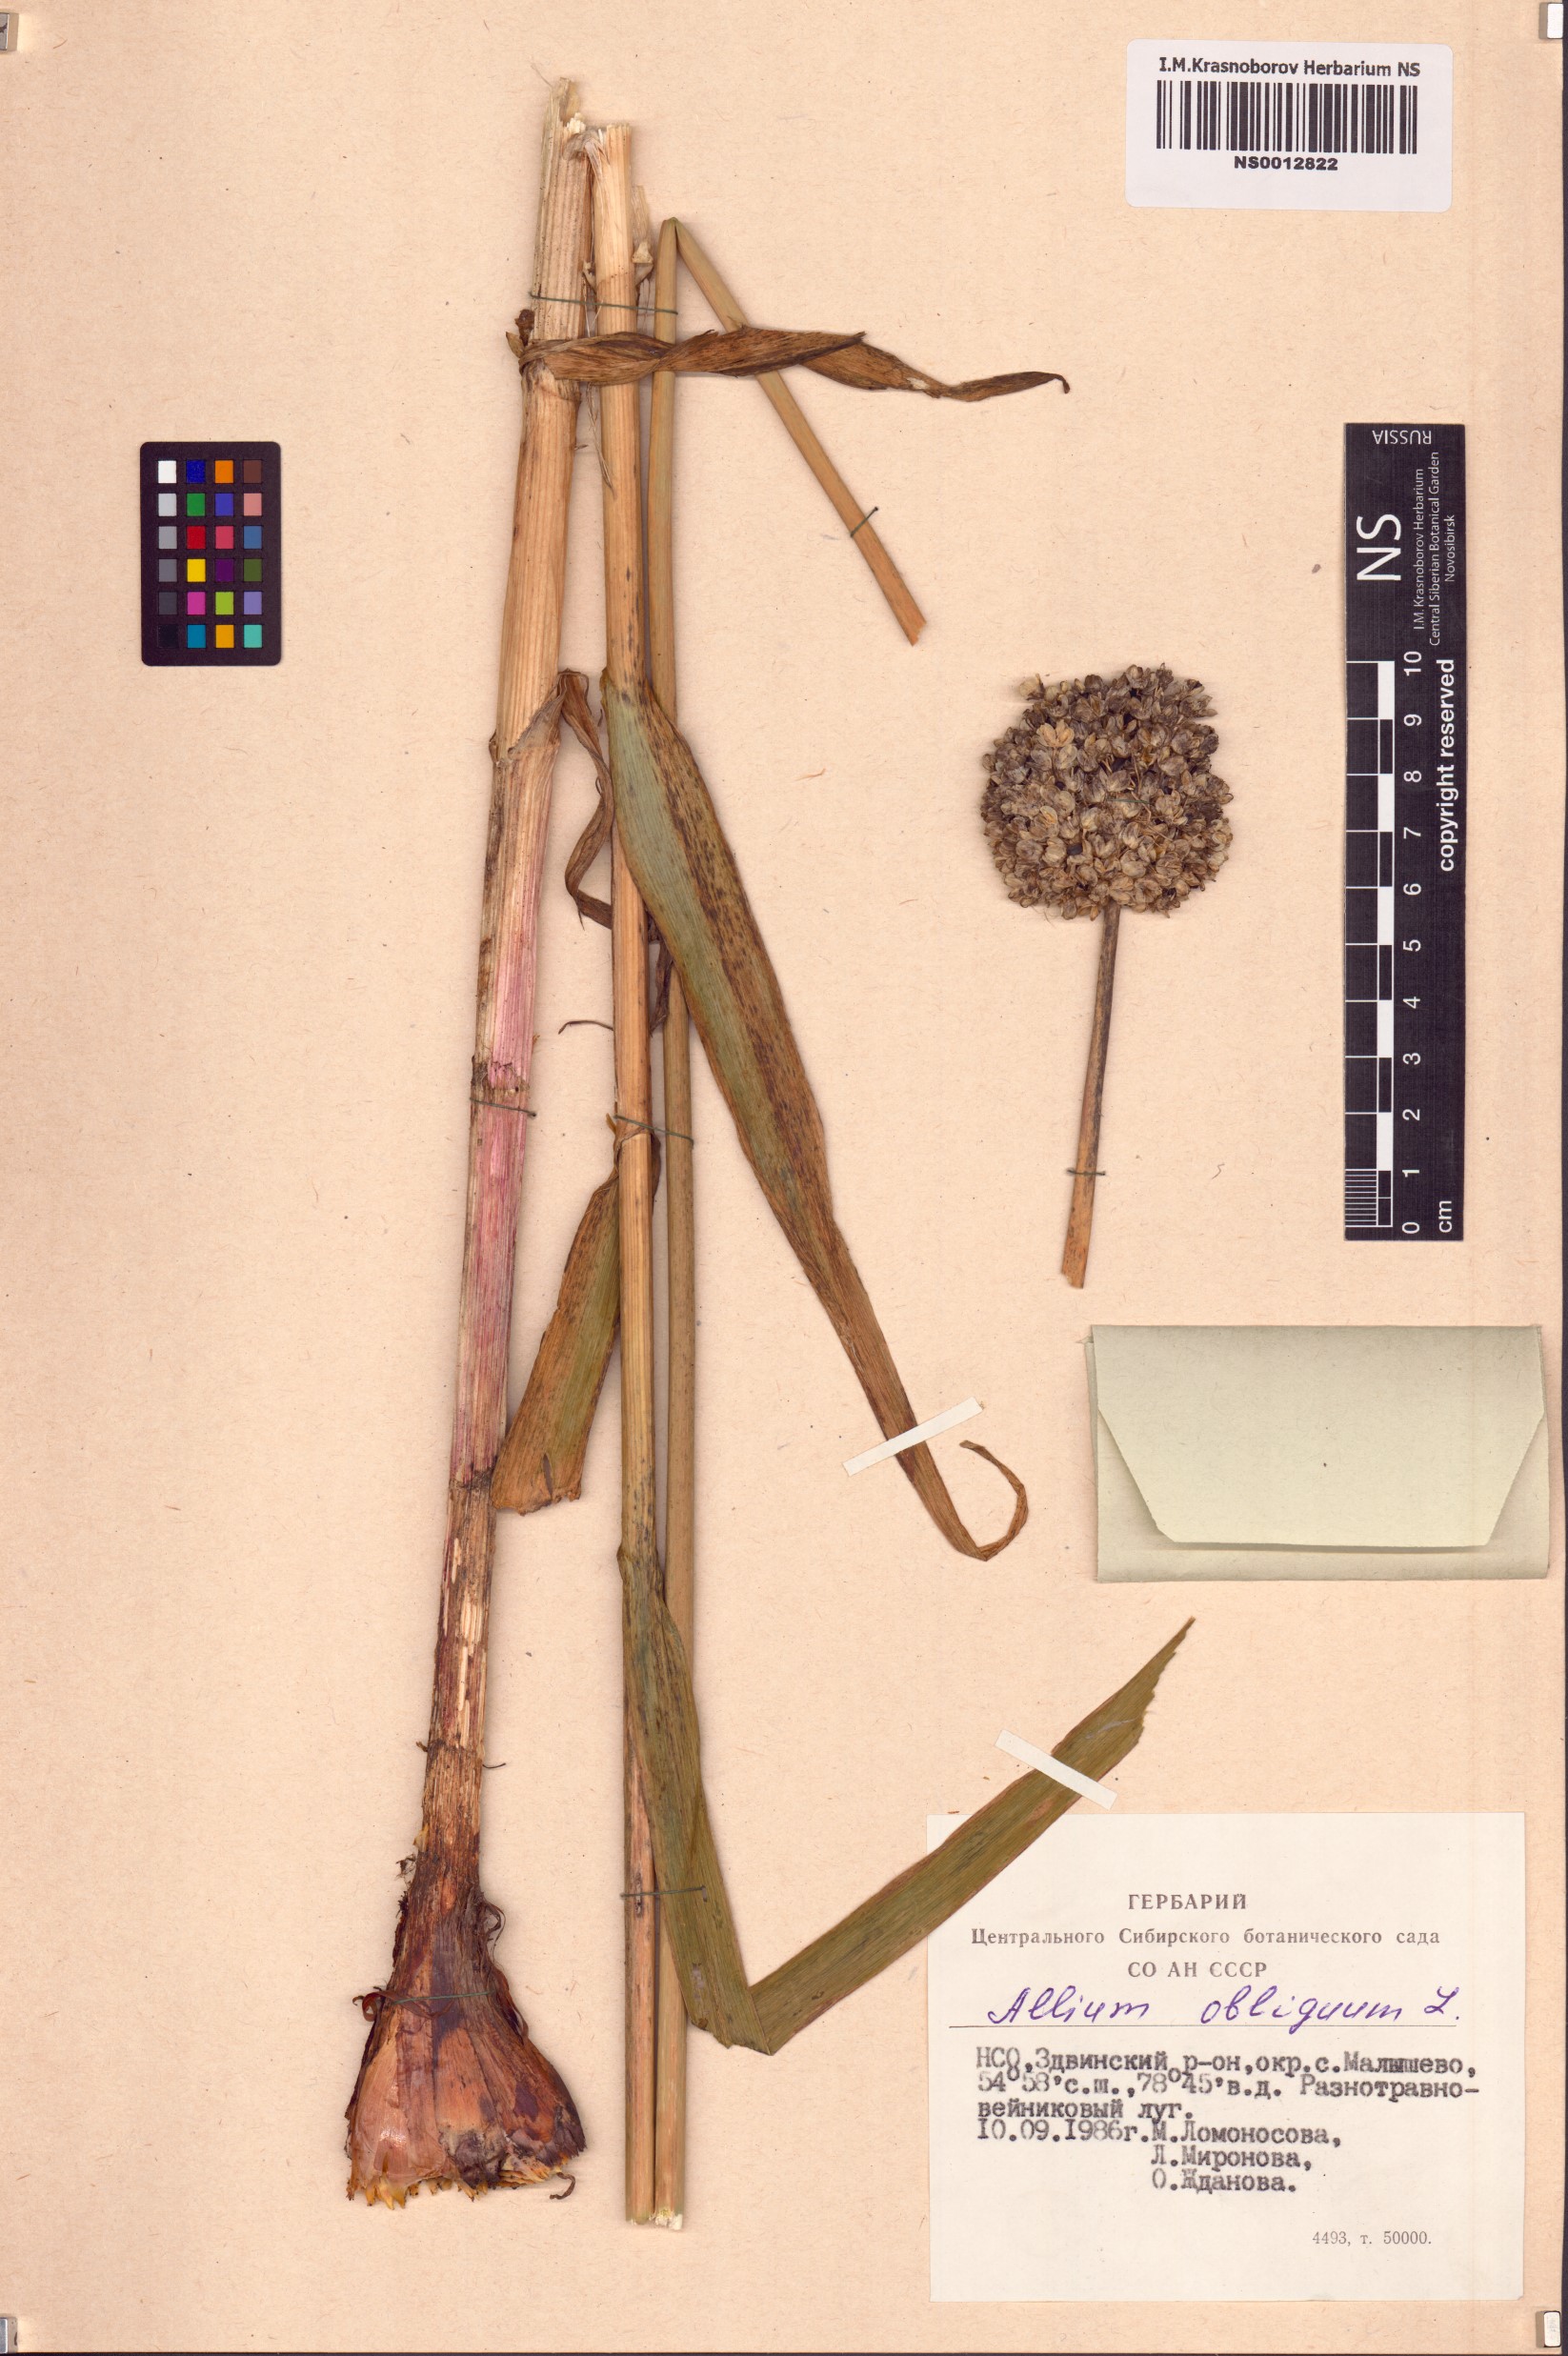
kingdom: Plantae
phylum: Tracheophyta
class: Liliopsida
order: Asparagales
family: Amaryllidaceae
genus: Allium
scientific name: Allium obliquum
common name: Oblique onion
